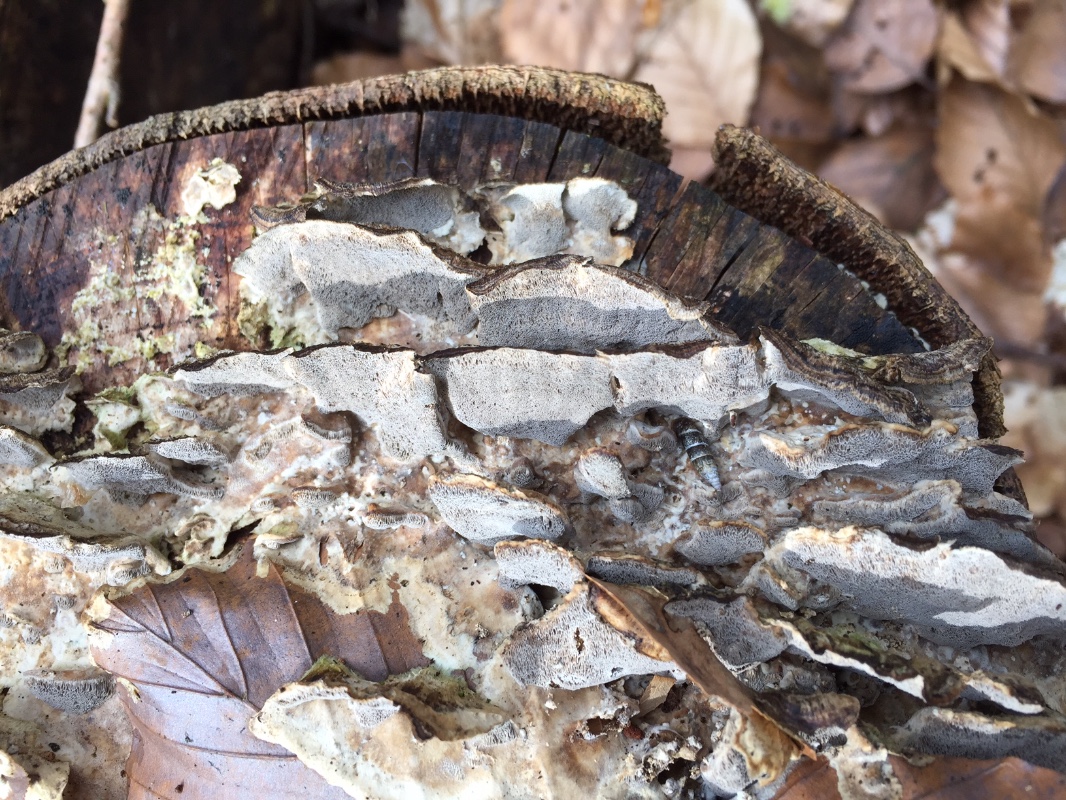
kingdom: Fungi
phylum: Basidiomycota
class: Agaricomycetes
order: Polyporales
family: Phanerochaetaceae
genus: Bjerkandera
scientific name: Bjerkandera adusta
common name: sveden sodporesvamp
